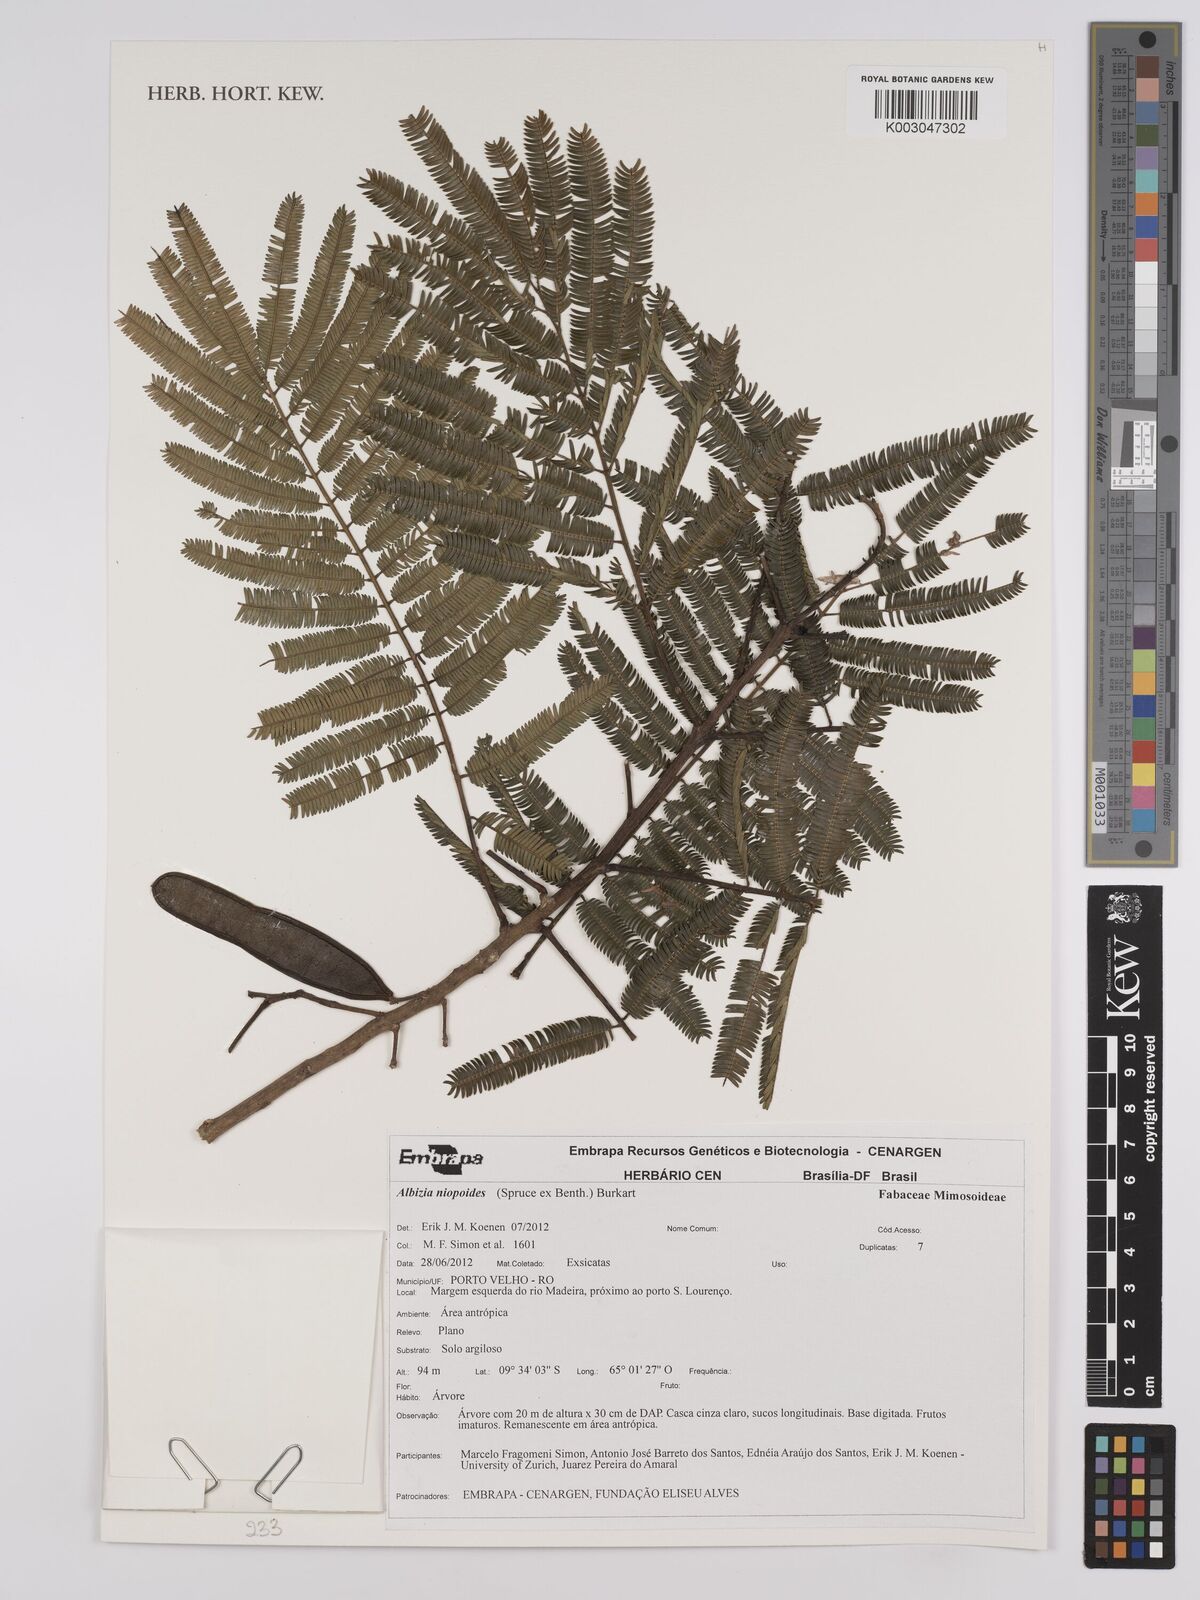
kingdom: Plantae
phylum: Tracheophyta
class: Magnoliopsida
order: Fabales
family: Fabaceae
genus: Albizia
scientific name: Albizia niopoides
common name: Silk tree
